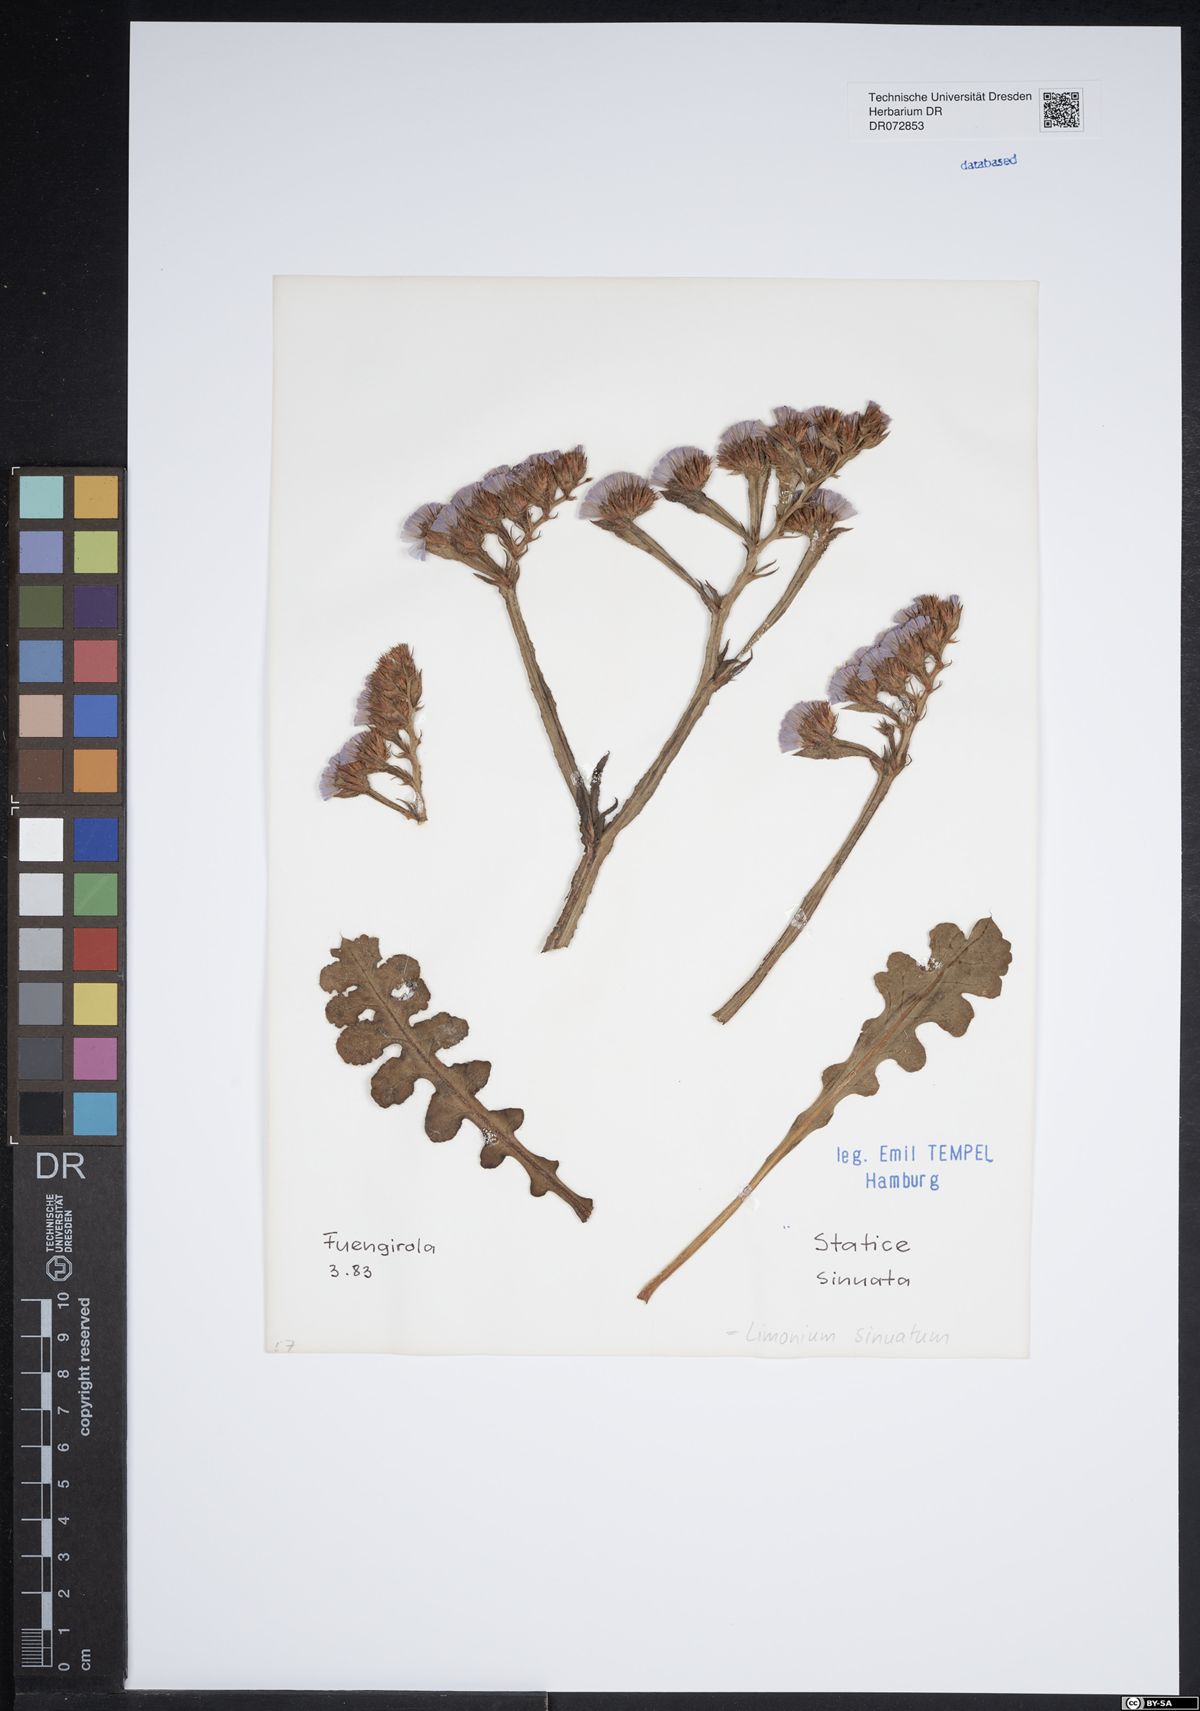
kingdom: Plantae
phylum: Tracheophyta
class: Magnoliopsida
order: Caryophyllales
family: Plumbaginaceae
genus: Limonium
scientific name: Limonium sinuatum
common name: Statice
